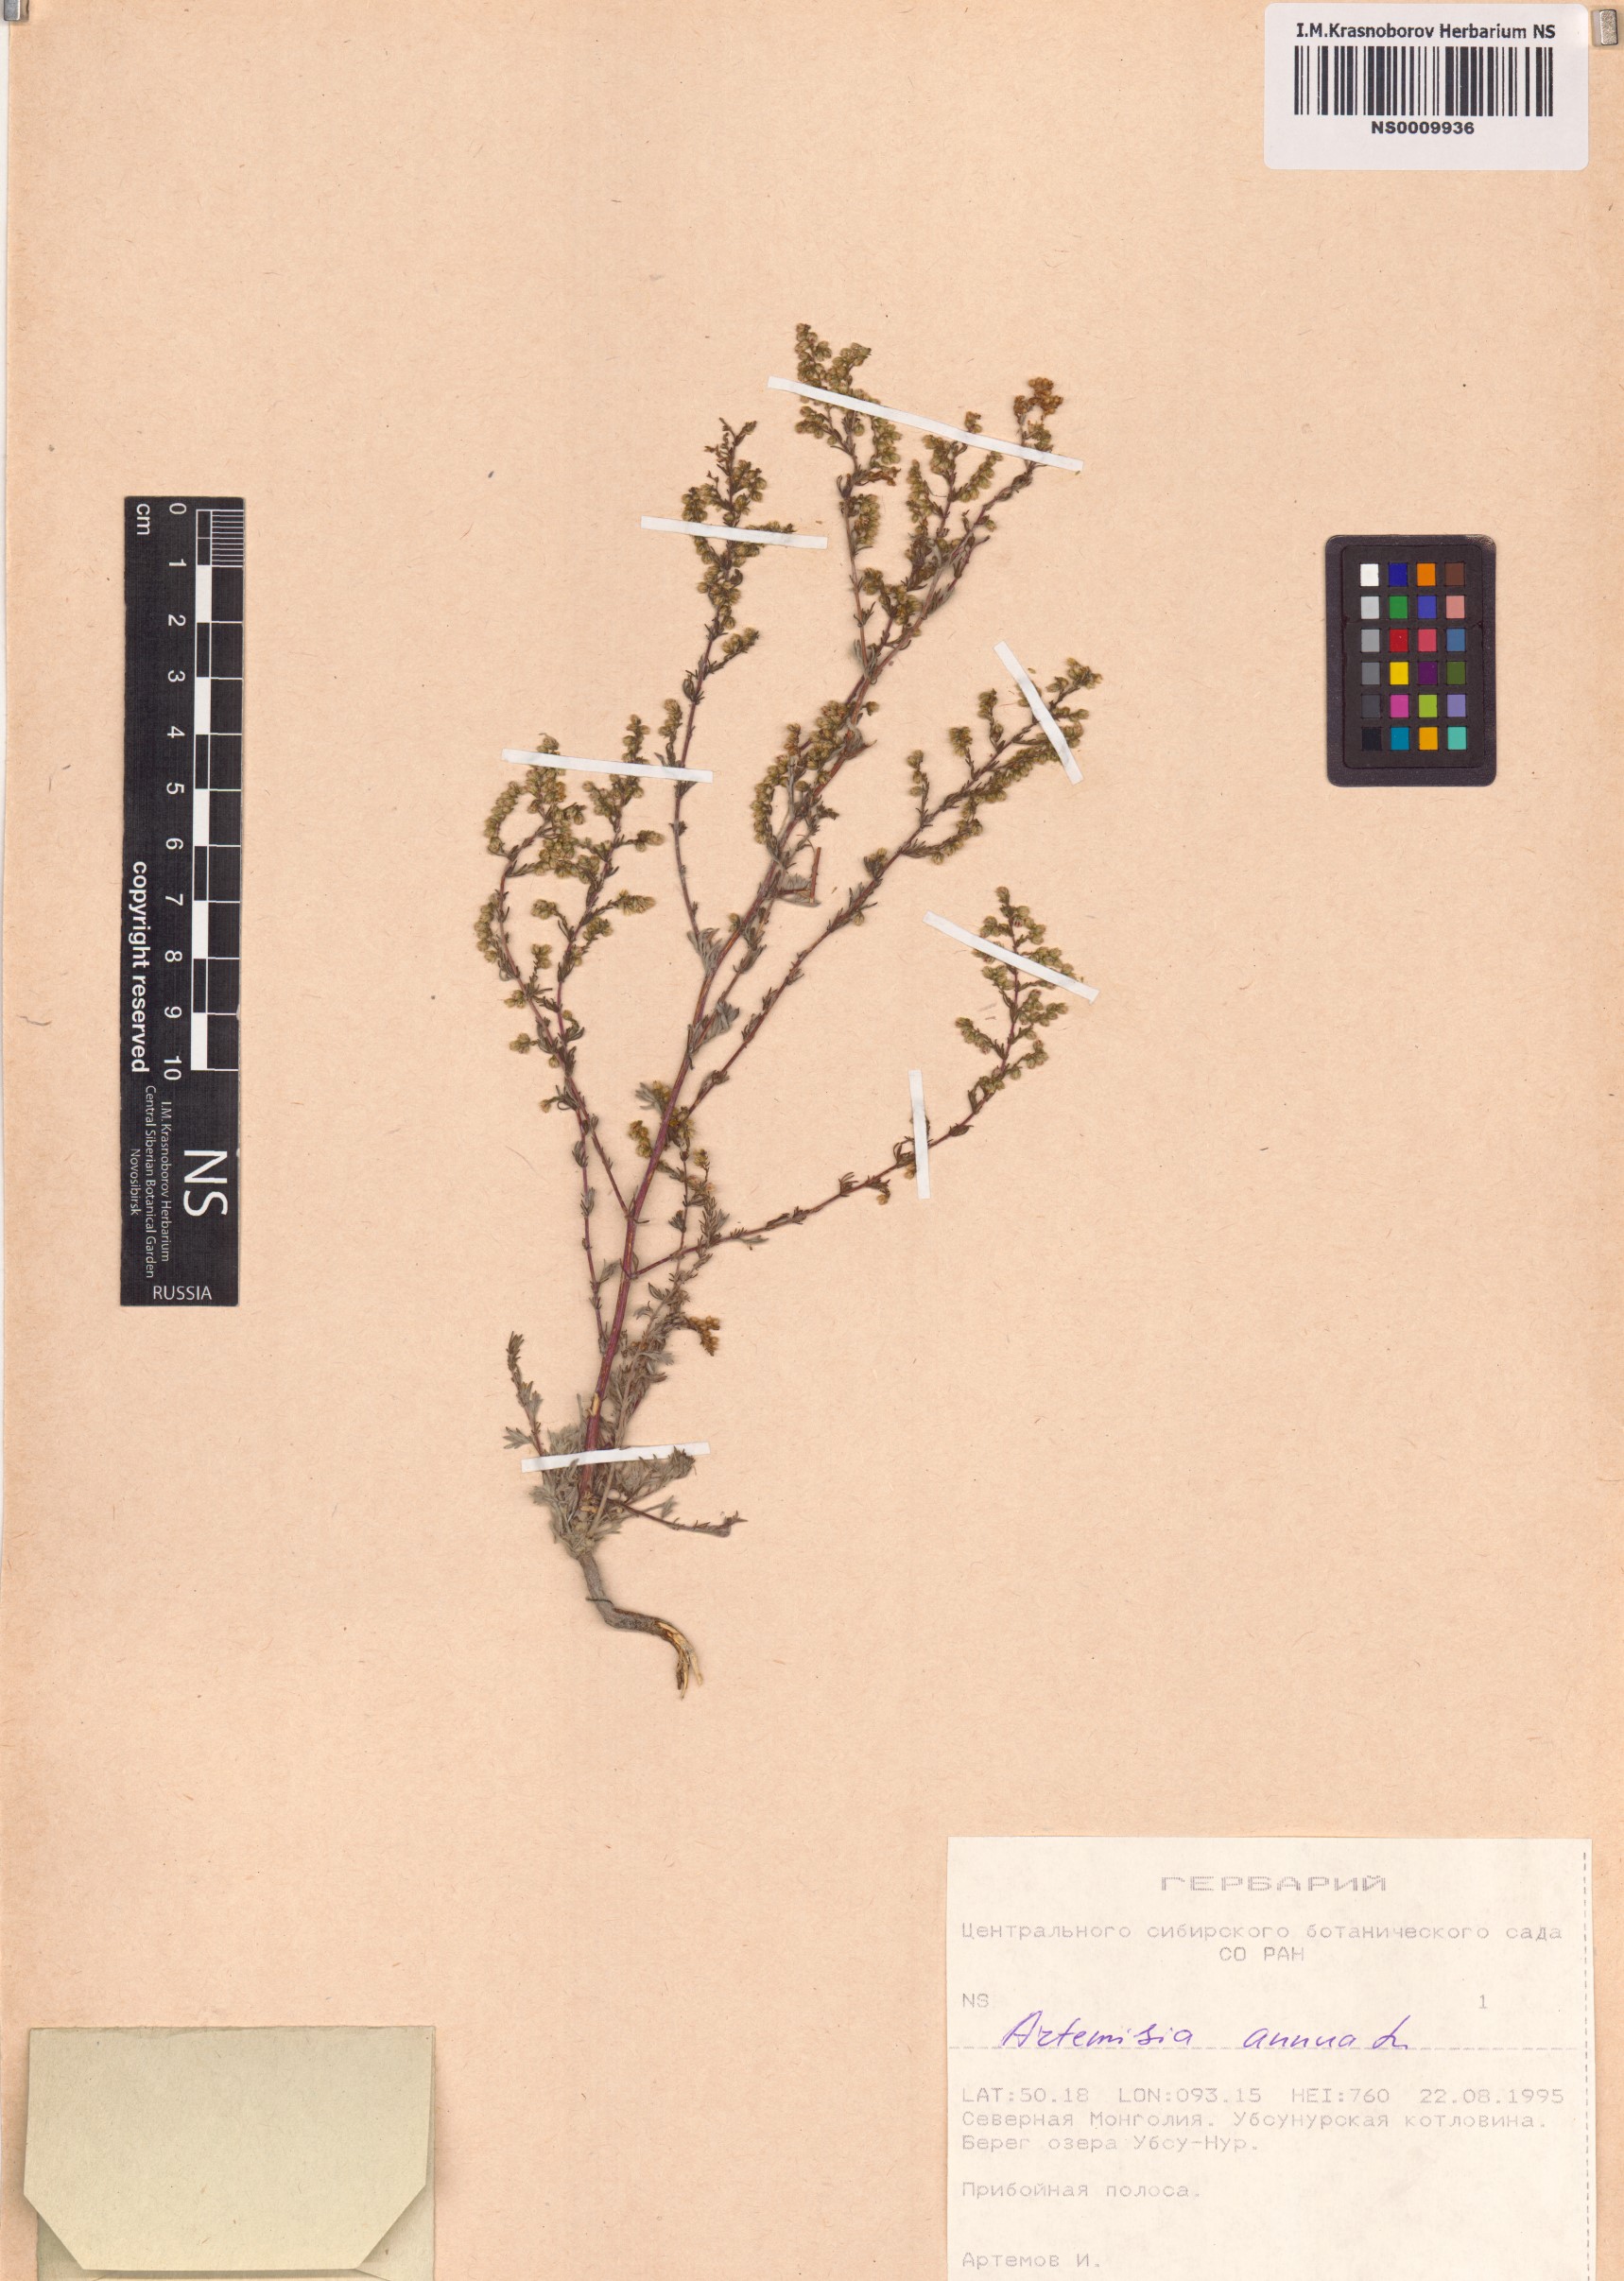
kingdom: Plantae
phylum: Tracheophyta
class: Magnoliopsida
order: Asterales
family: Asteraceae
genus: Artemisia
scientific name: Artemisia annua
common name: Sweet sagewort
